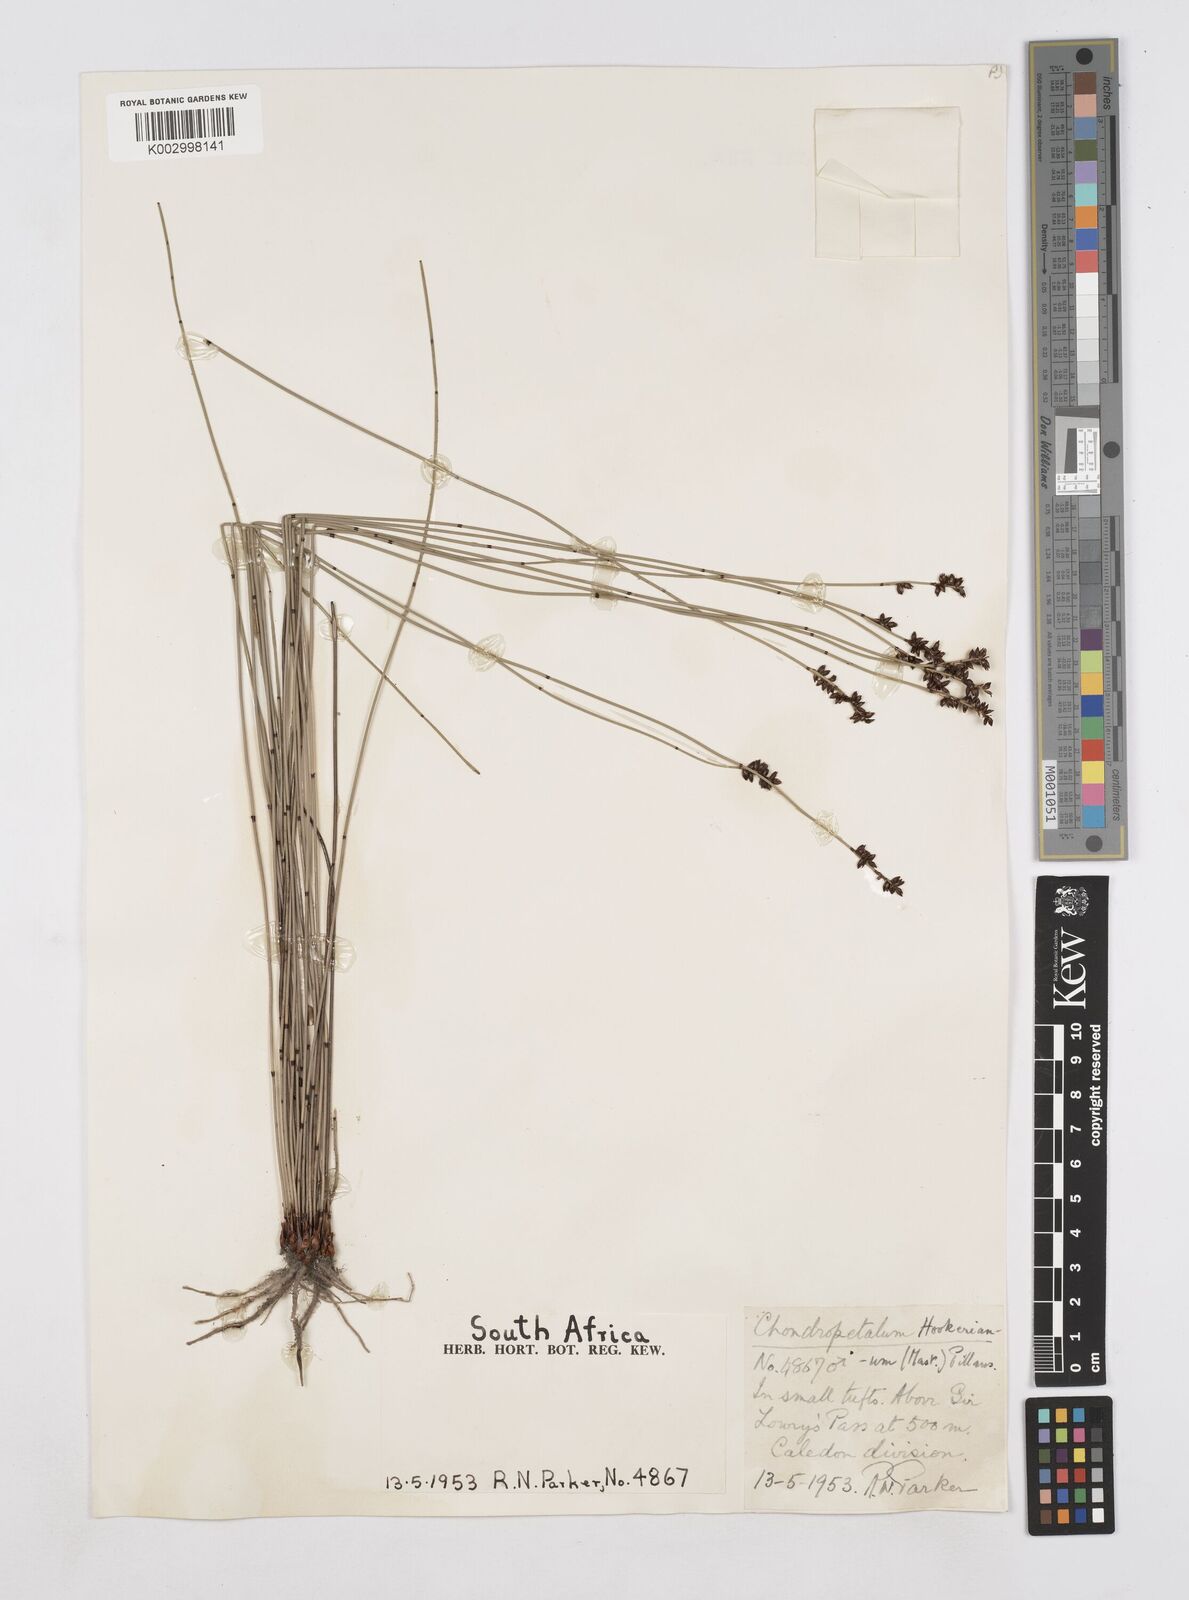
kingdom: Plantae
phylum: Tracheophyta
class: Liliopsida
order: Poales
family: Restionaceae
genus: Elegia
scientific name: Elegia hookeriana
